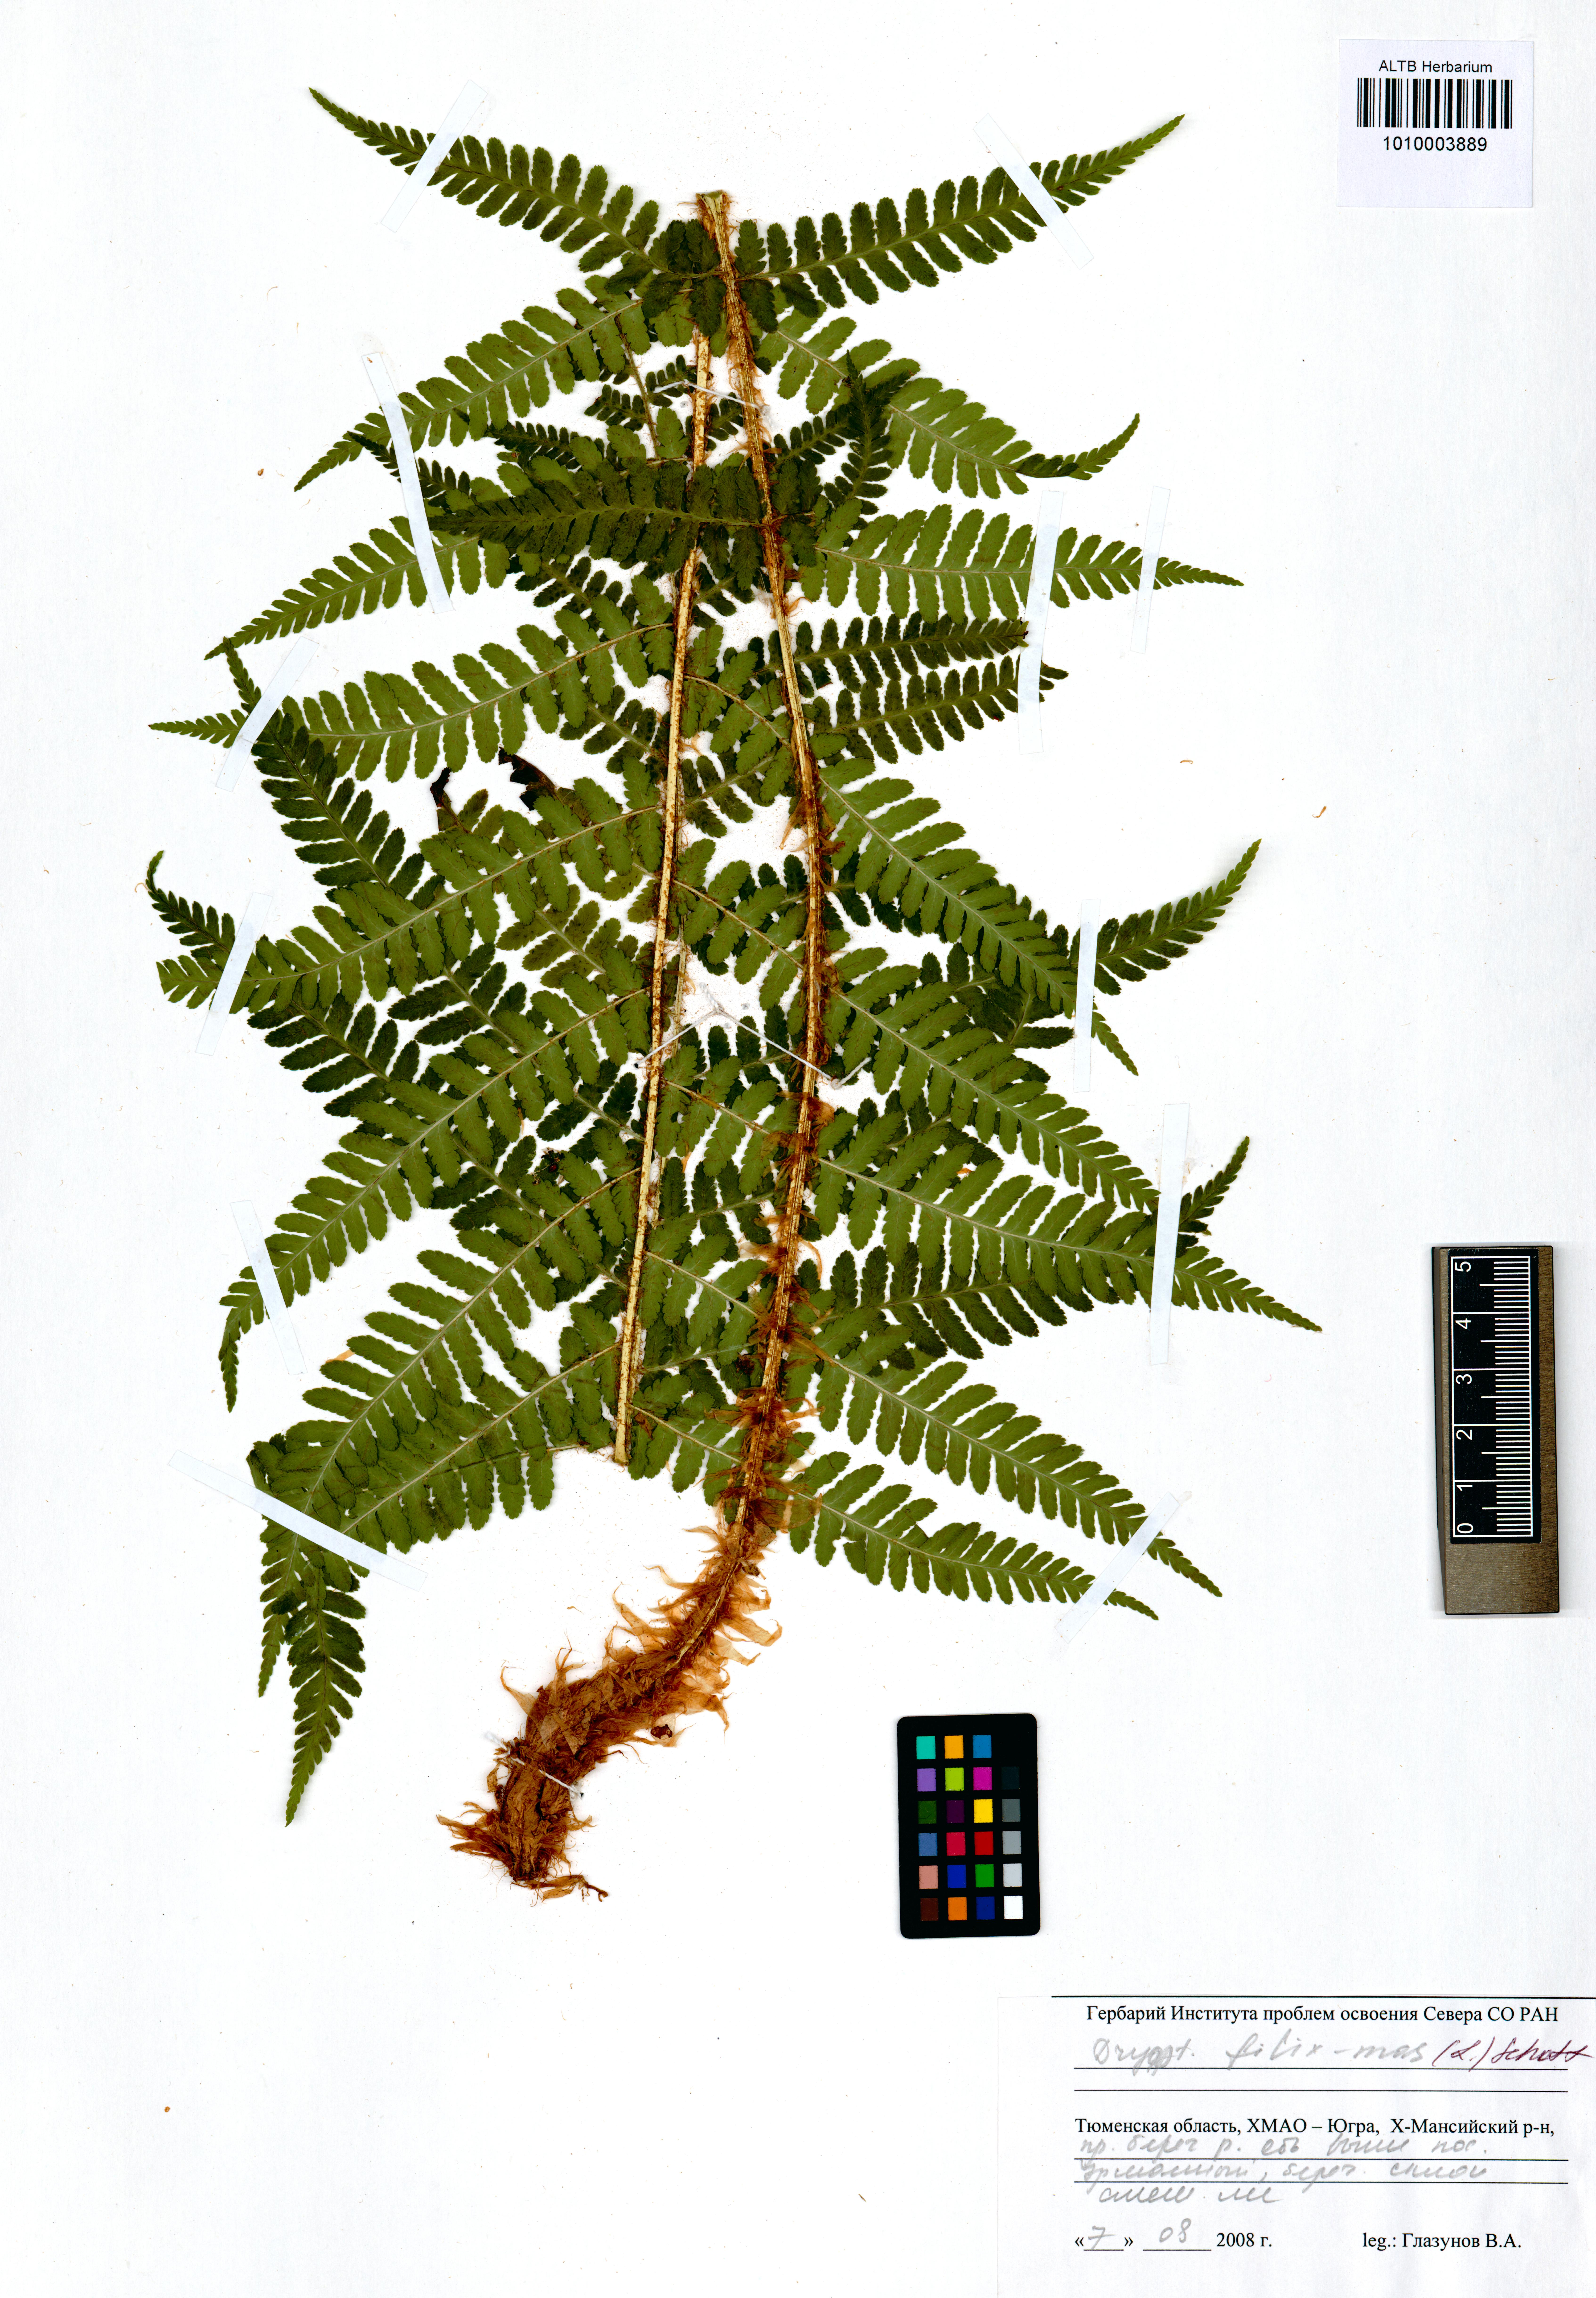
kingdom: Plantae
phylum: Tracheophyta
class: Polypodiopsida
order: Polypodiales
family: Dryopteridaceae
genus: Dryopteris
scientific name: Dryopteris filix-mas
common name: Male fern
